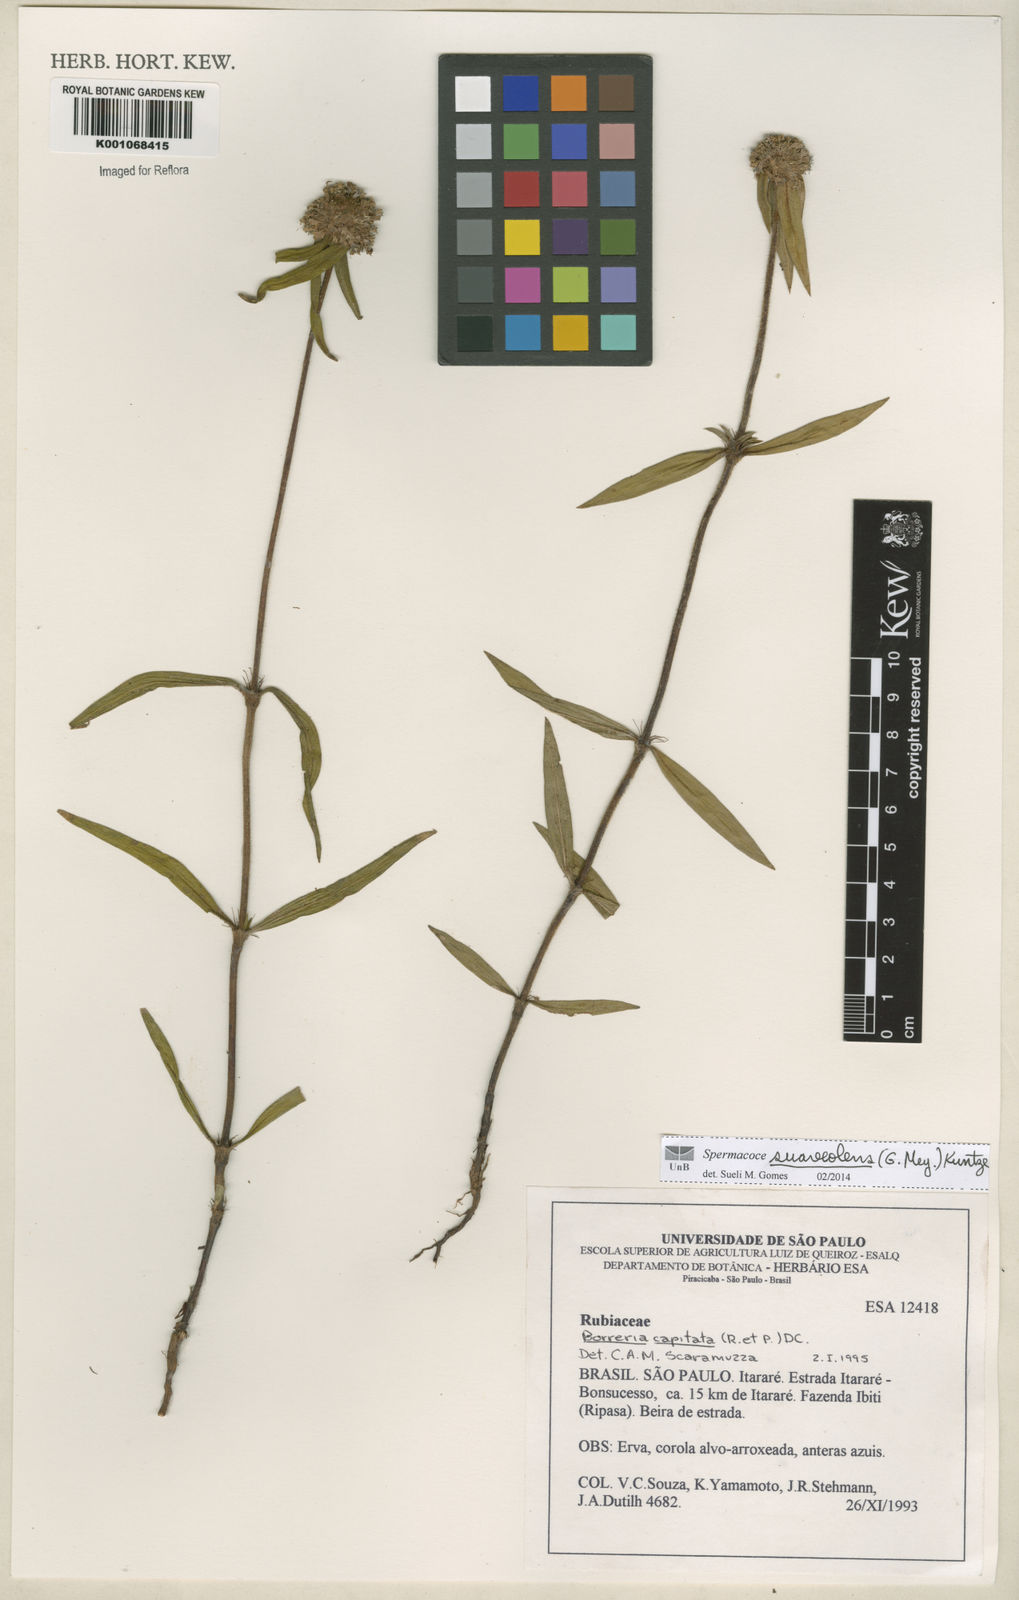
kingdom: Plantae
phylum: Tracheophyta
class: Magnoliopsida
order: Gentianales
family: Rubiaceae
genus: Spermacoce
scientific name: Spermacoce suaveolens
